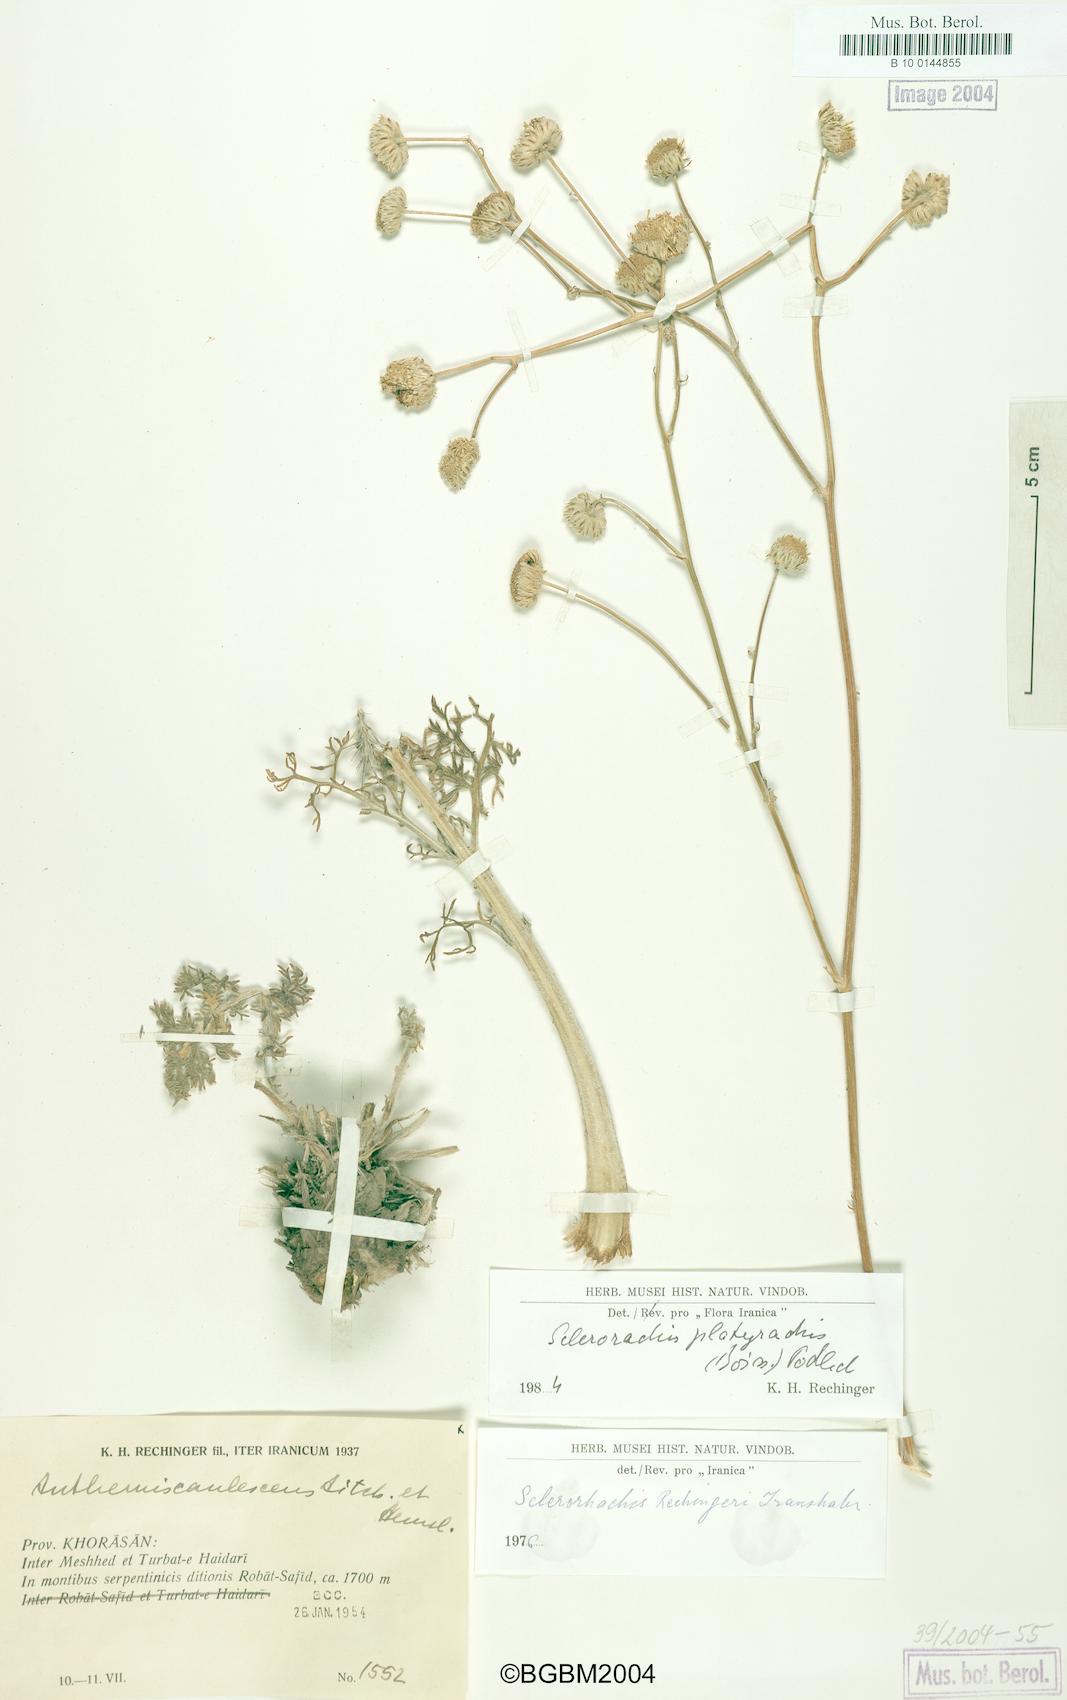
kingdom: Plantae
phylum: Tracheophyta
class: Magnoliopsida
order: Asterales
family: Asteraceae
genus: Sclerorhachis
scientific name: Sclerorhachis platyrachis
